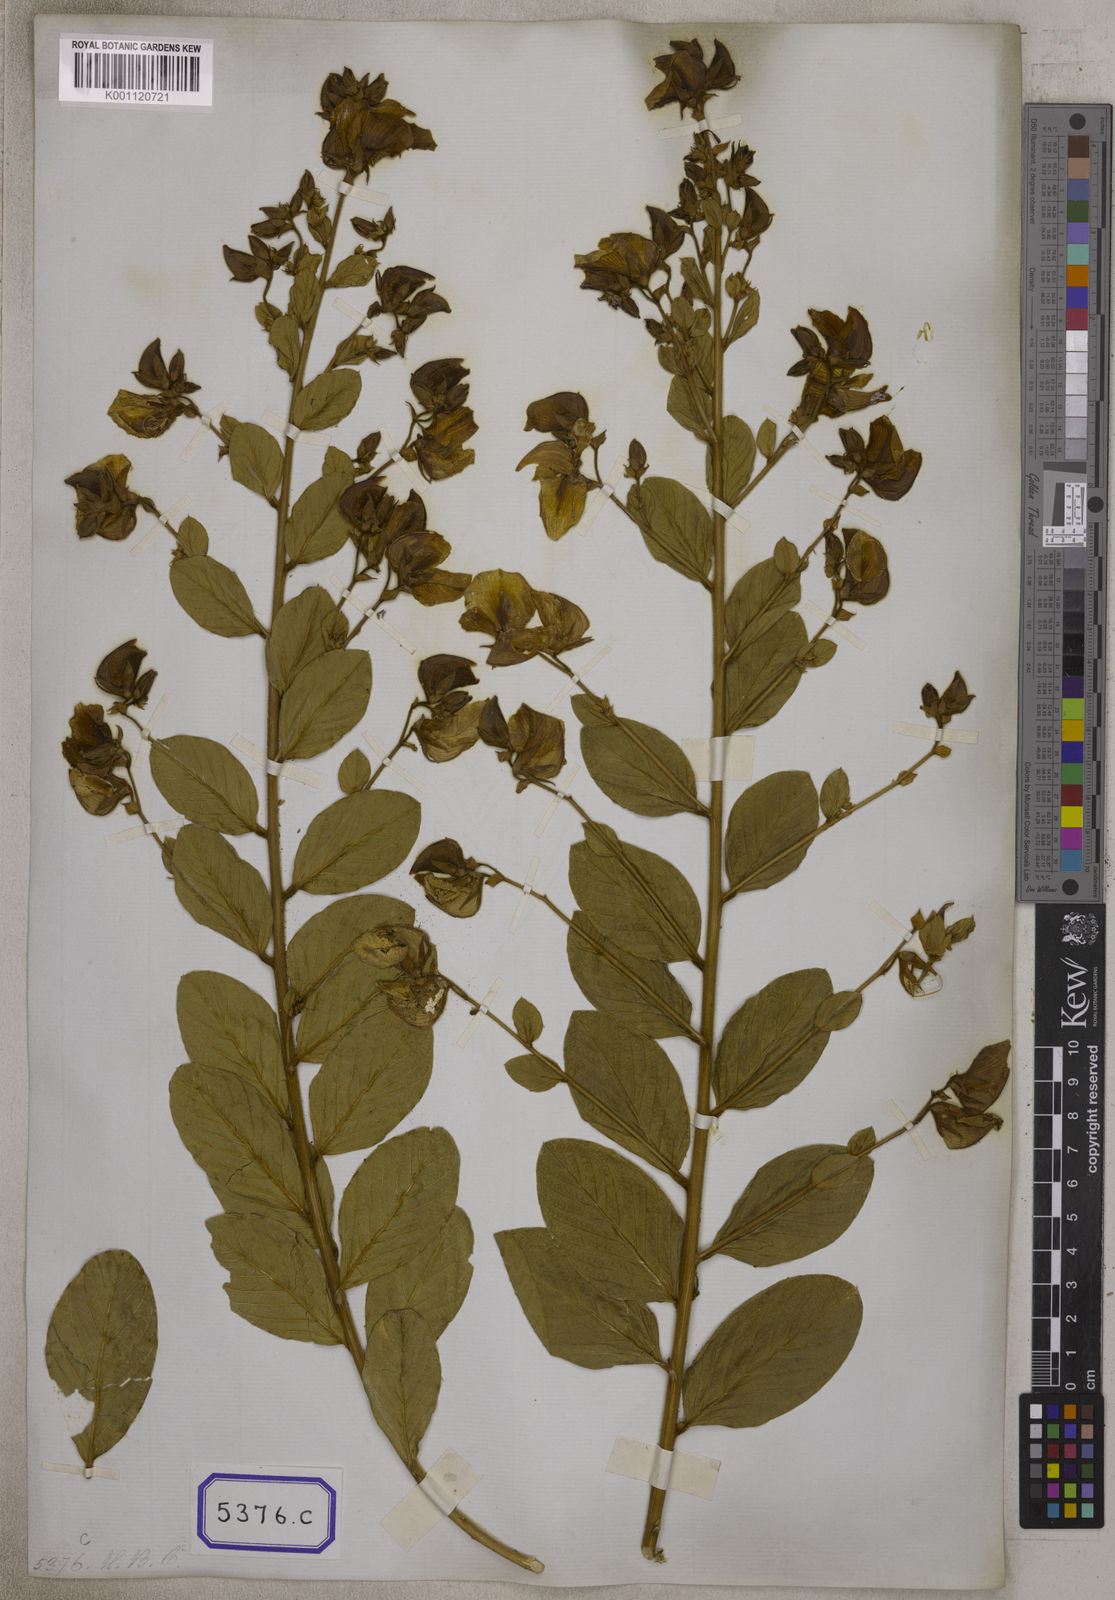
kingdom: Plantae
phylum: Tracheophyta
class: Magnoliopsida
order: Fabales
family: Fabaceae
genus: Crotalaria
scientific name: Crotalaria madurensis
